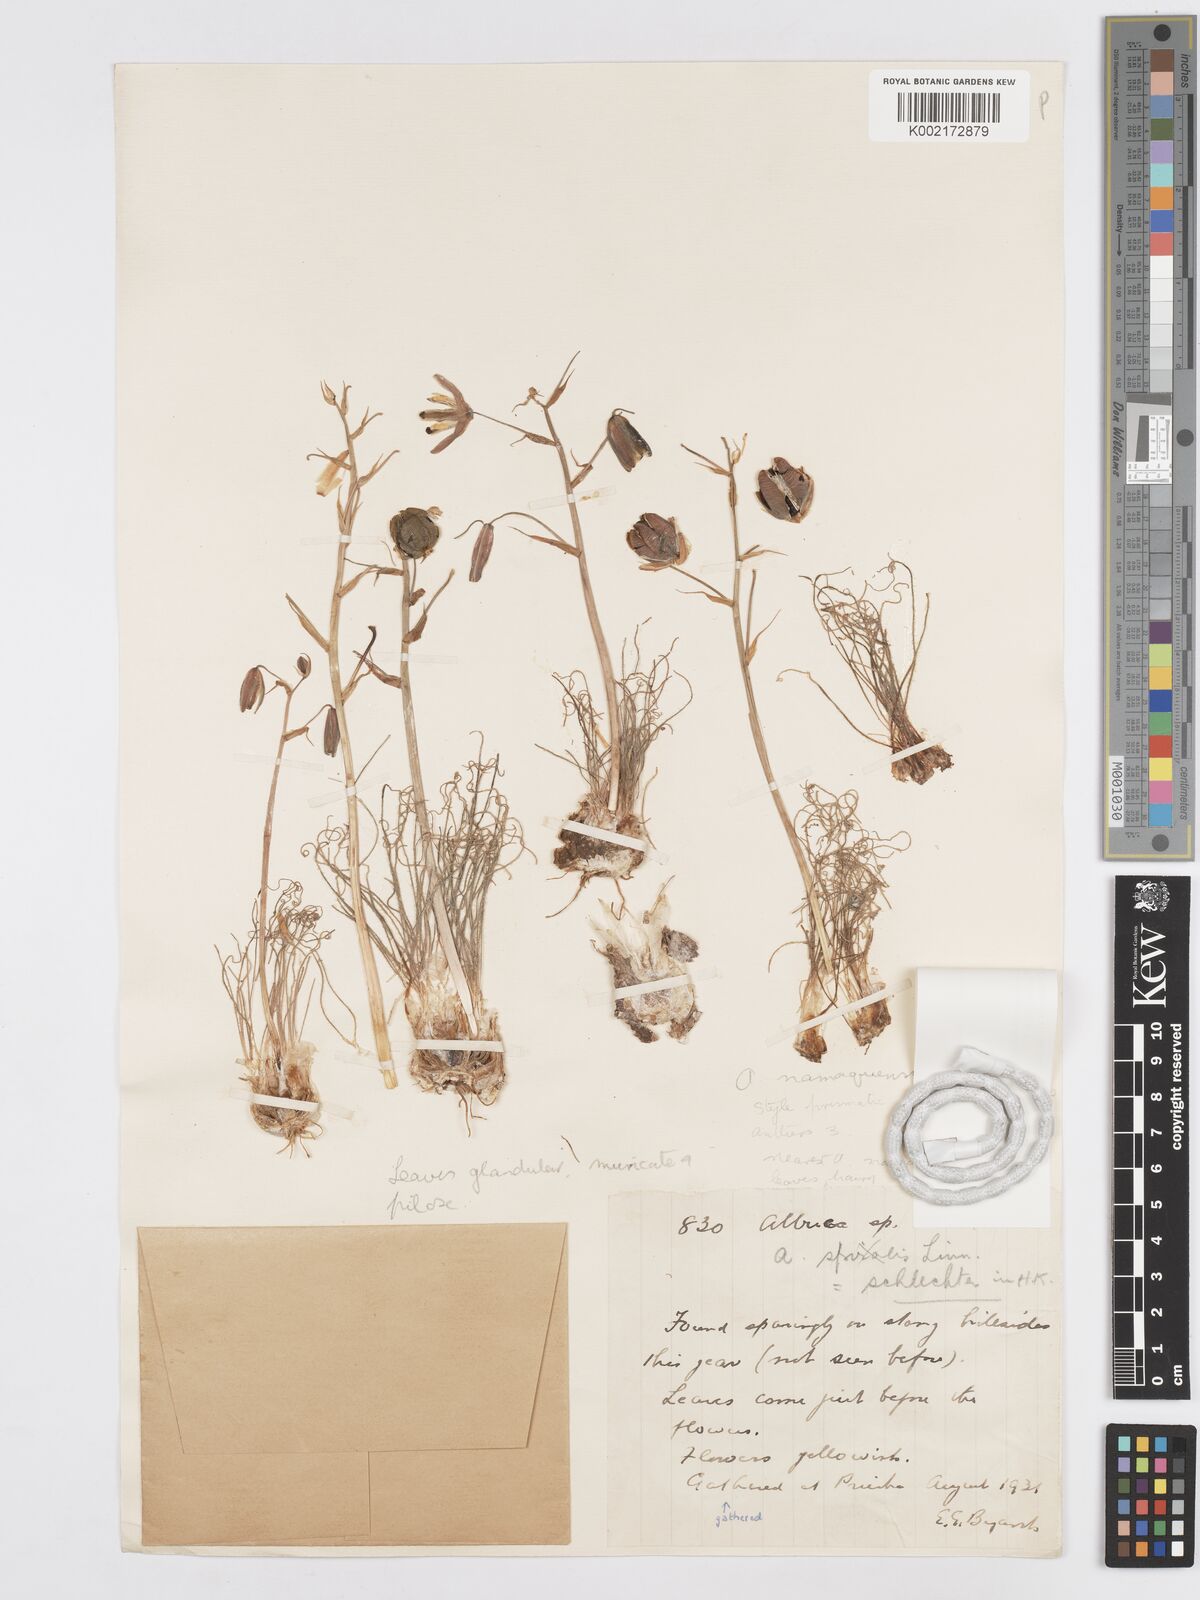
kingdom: Plantae
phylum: Tracheophyta
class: Liliopsida
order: Asparagales
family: Asparagaceae
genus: Albuca
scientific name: Albuca namaquensis
